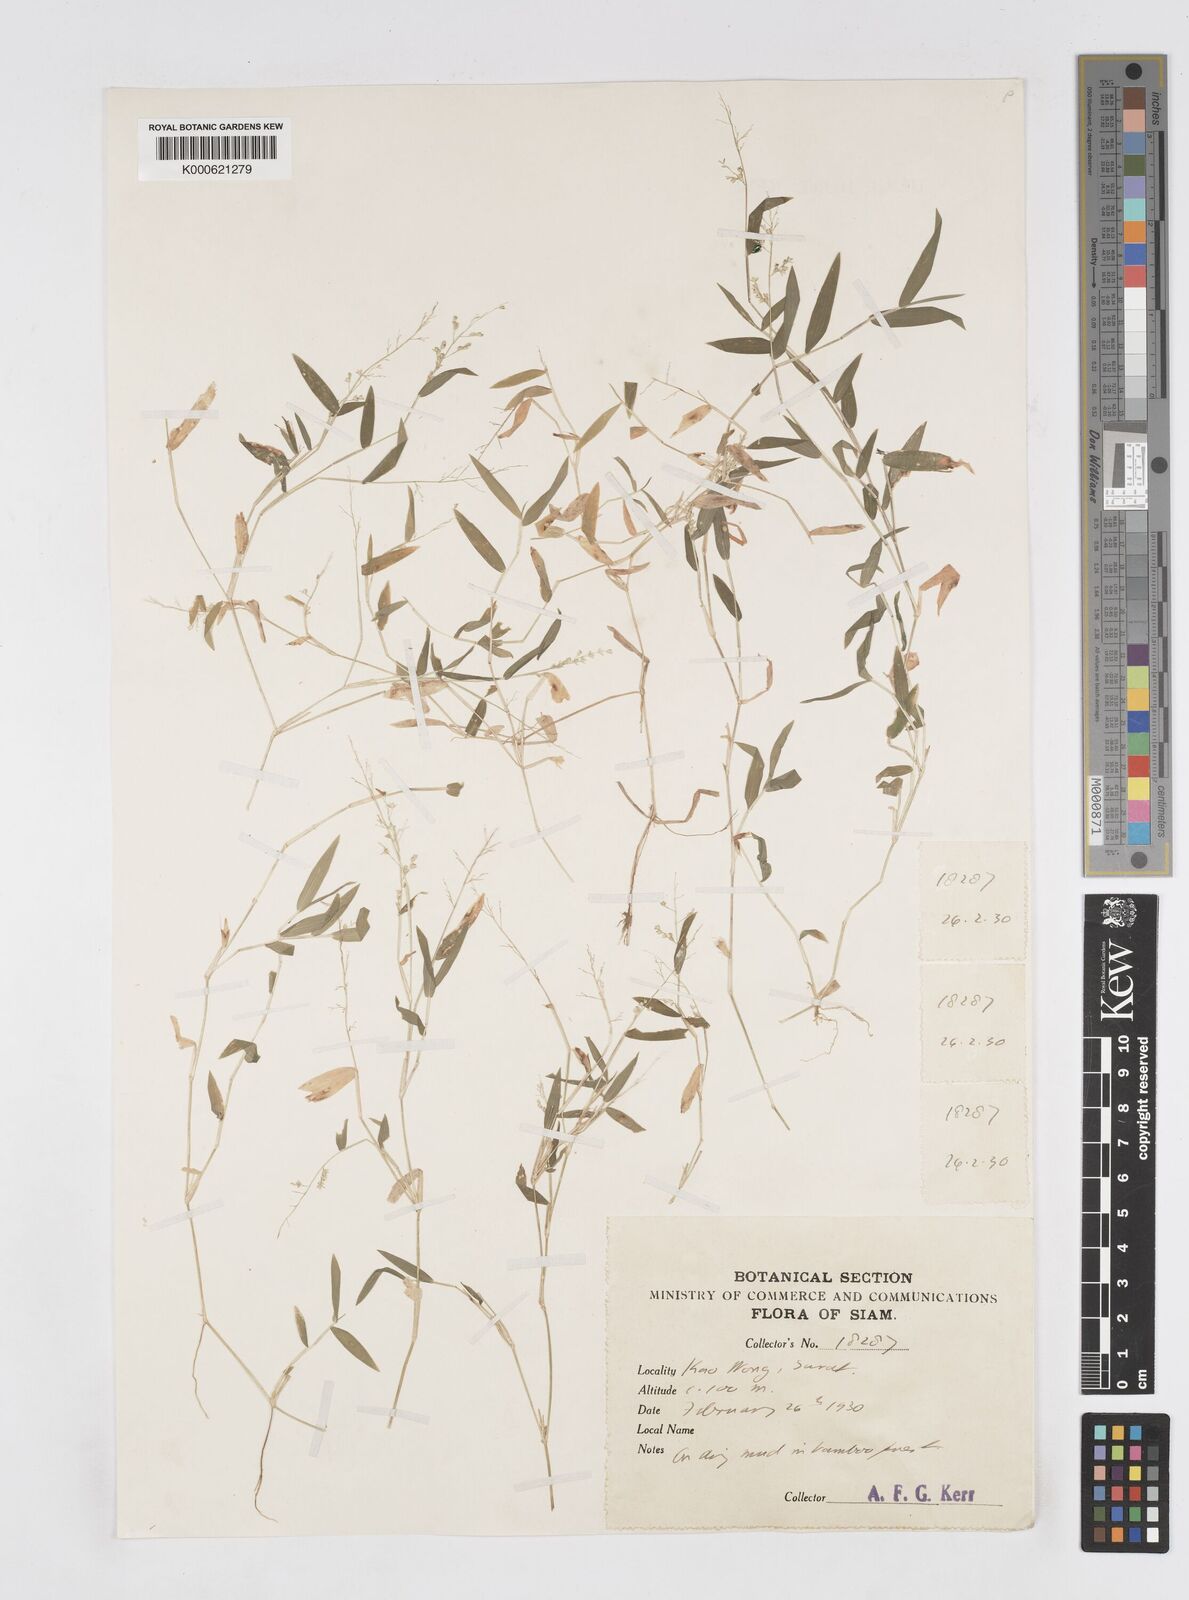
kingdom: Plantae
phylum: Tracheophyta
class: Liliopsida
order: Poales
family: Poaceae
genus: Isachne
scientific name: Isachne
